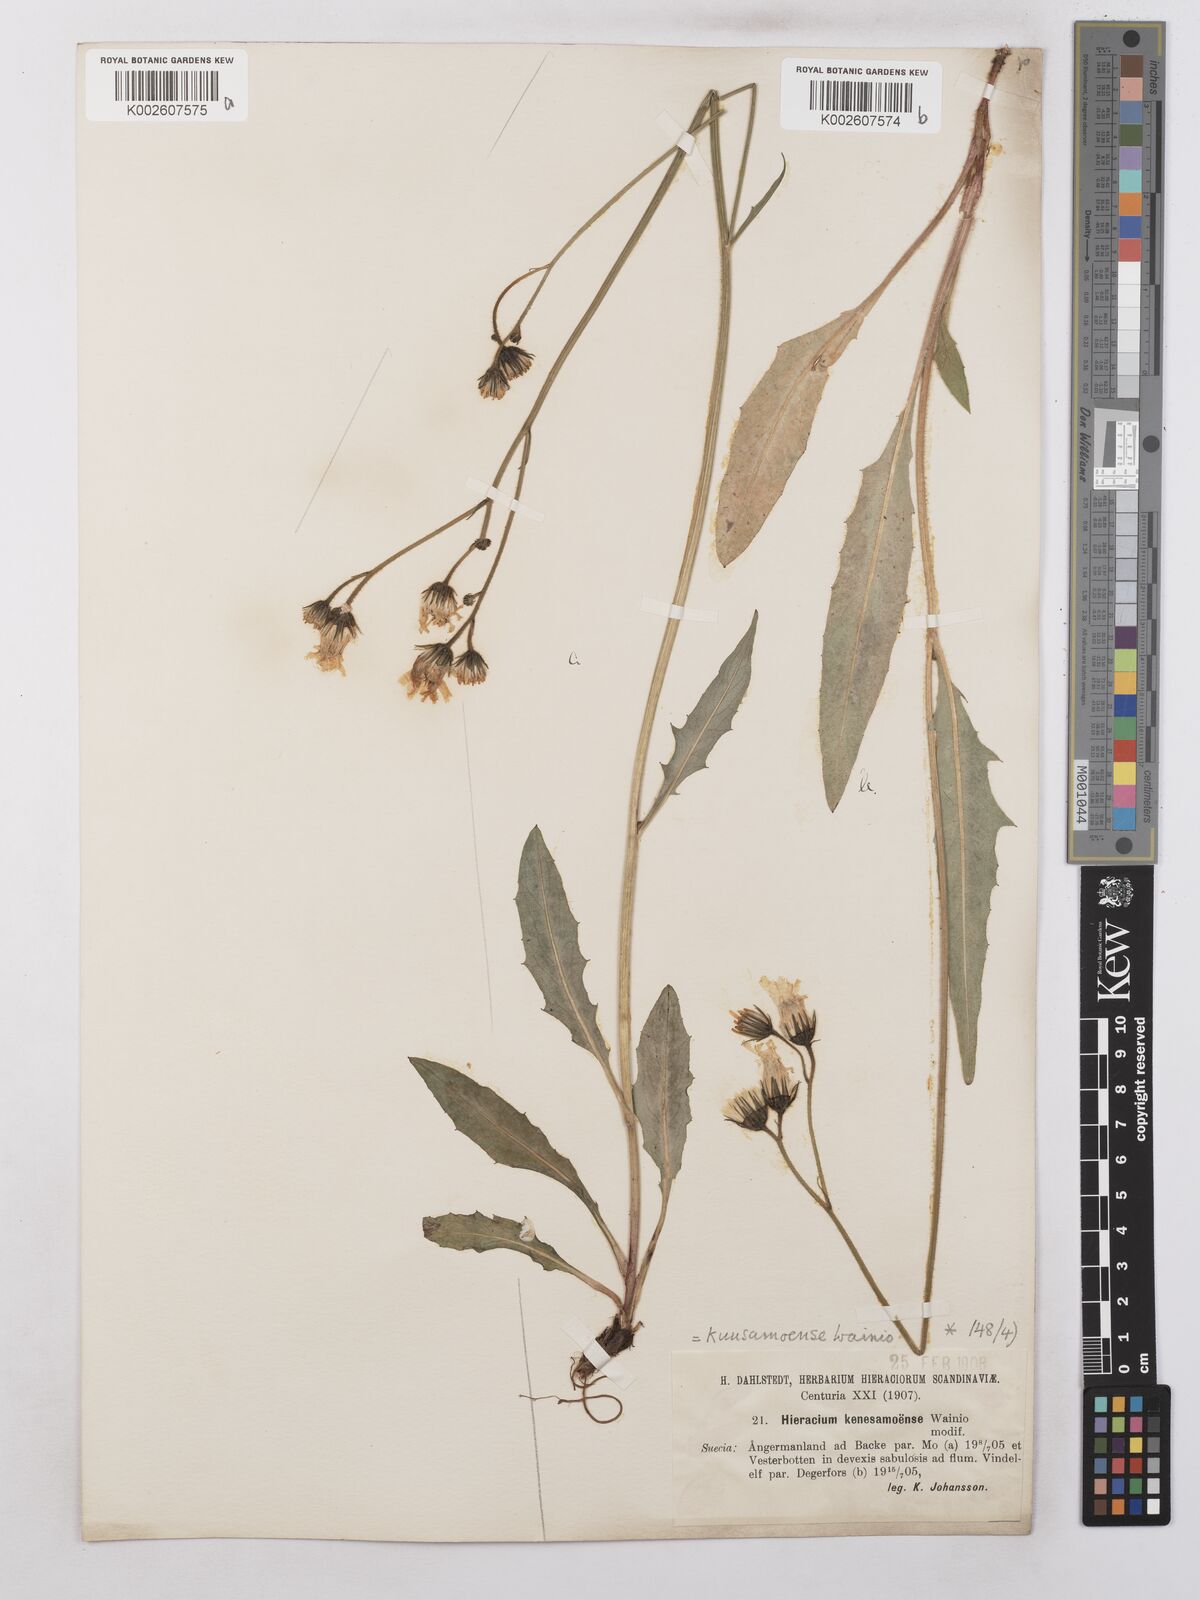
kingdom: Plantae
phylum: Tracheophyta
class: Magnoliopsida
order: Asterales
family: Asteraceae
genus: Hieracium
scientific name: Hieracium subramosum
